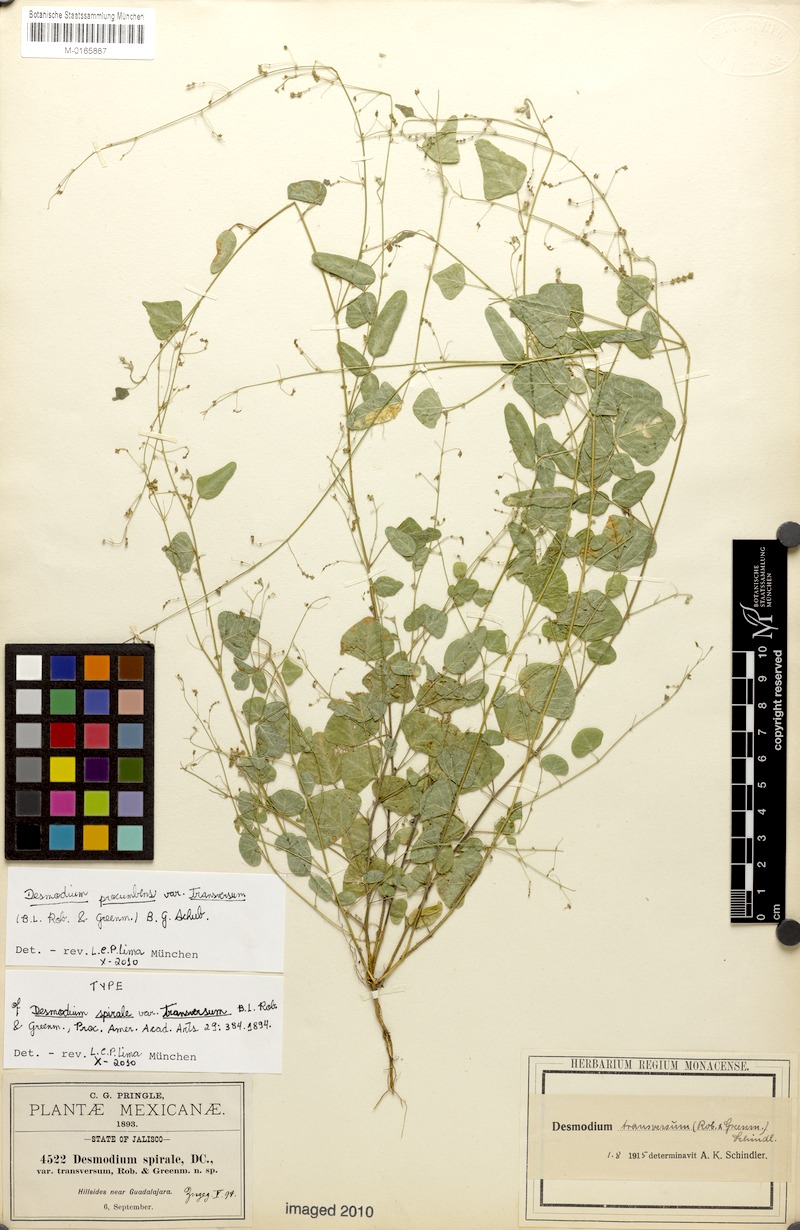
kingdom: Plantae
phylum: Tracheophyta
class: Magnoliopsida
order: Fabales
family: Fabaceae
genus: Desmodium
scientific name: Desmodium procumbens
